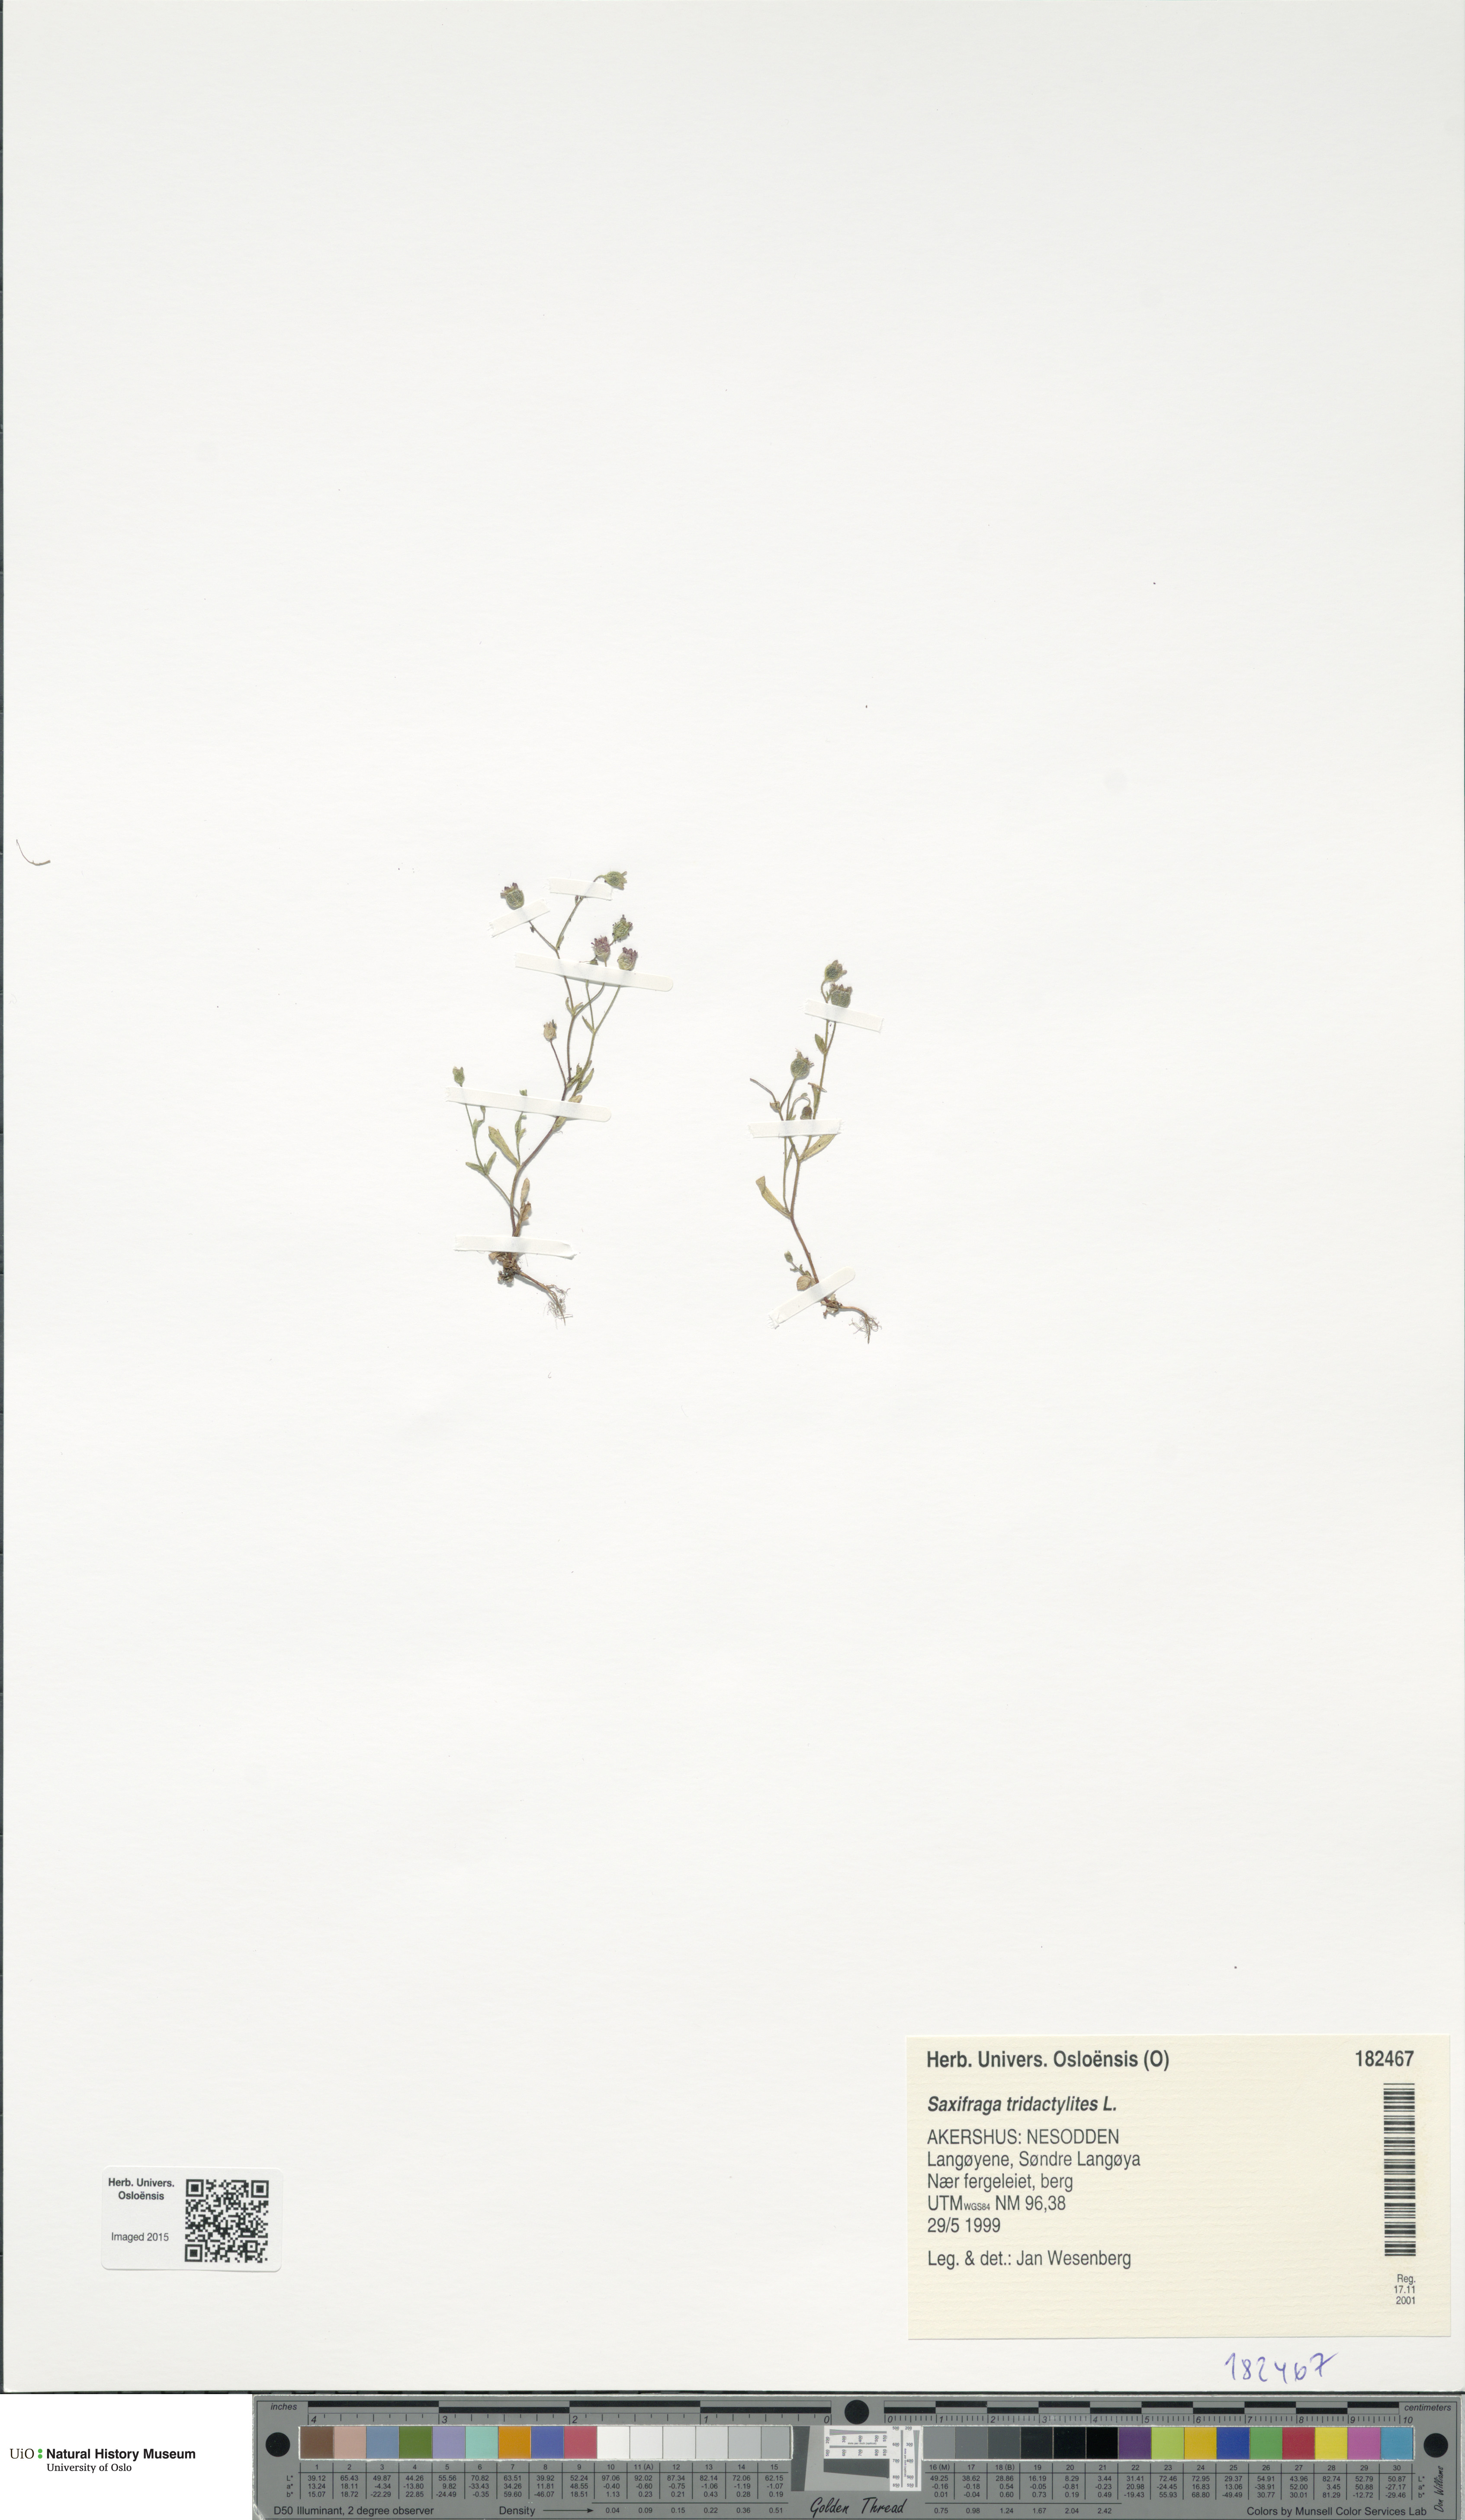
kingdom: Plantae
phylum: Tracheophyta
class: Magnoliopsida
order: Saxifragales
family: Saxifragaceae
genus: Saxifraga
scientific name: Saxifraga tridactylites
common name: Rue-leaved saxifrage
